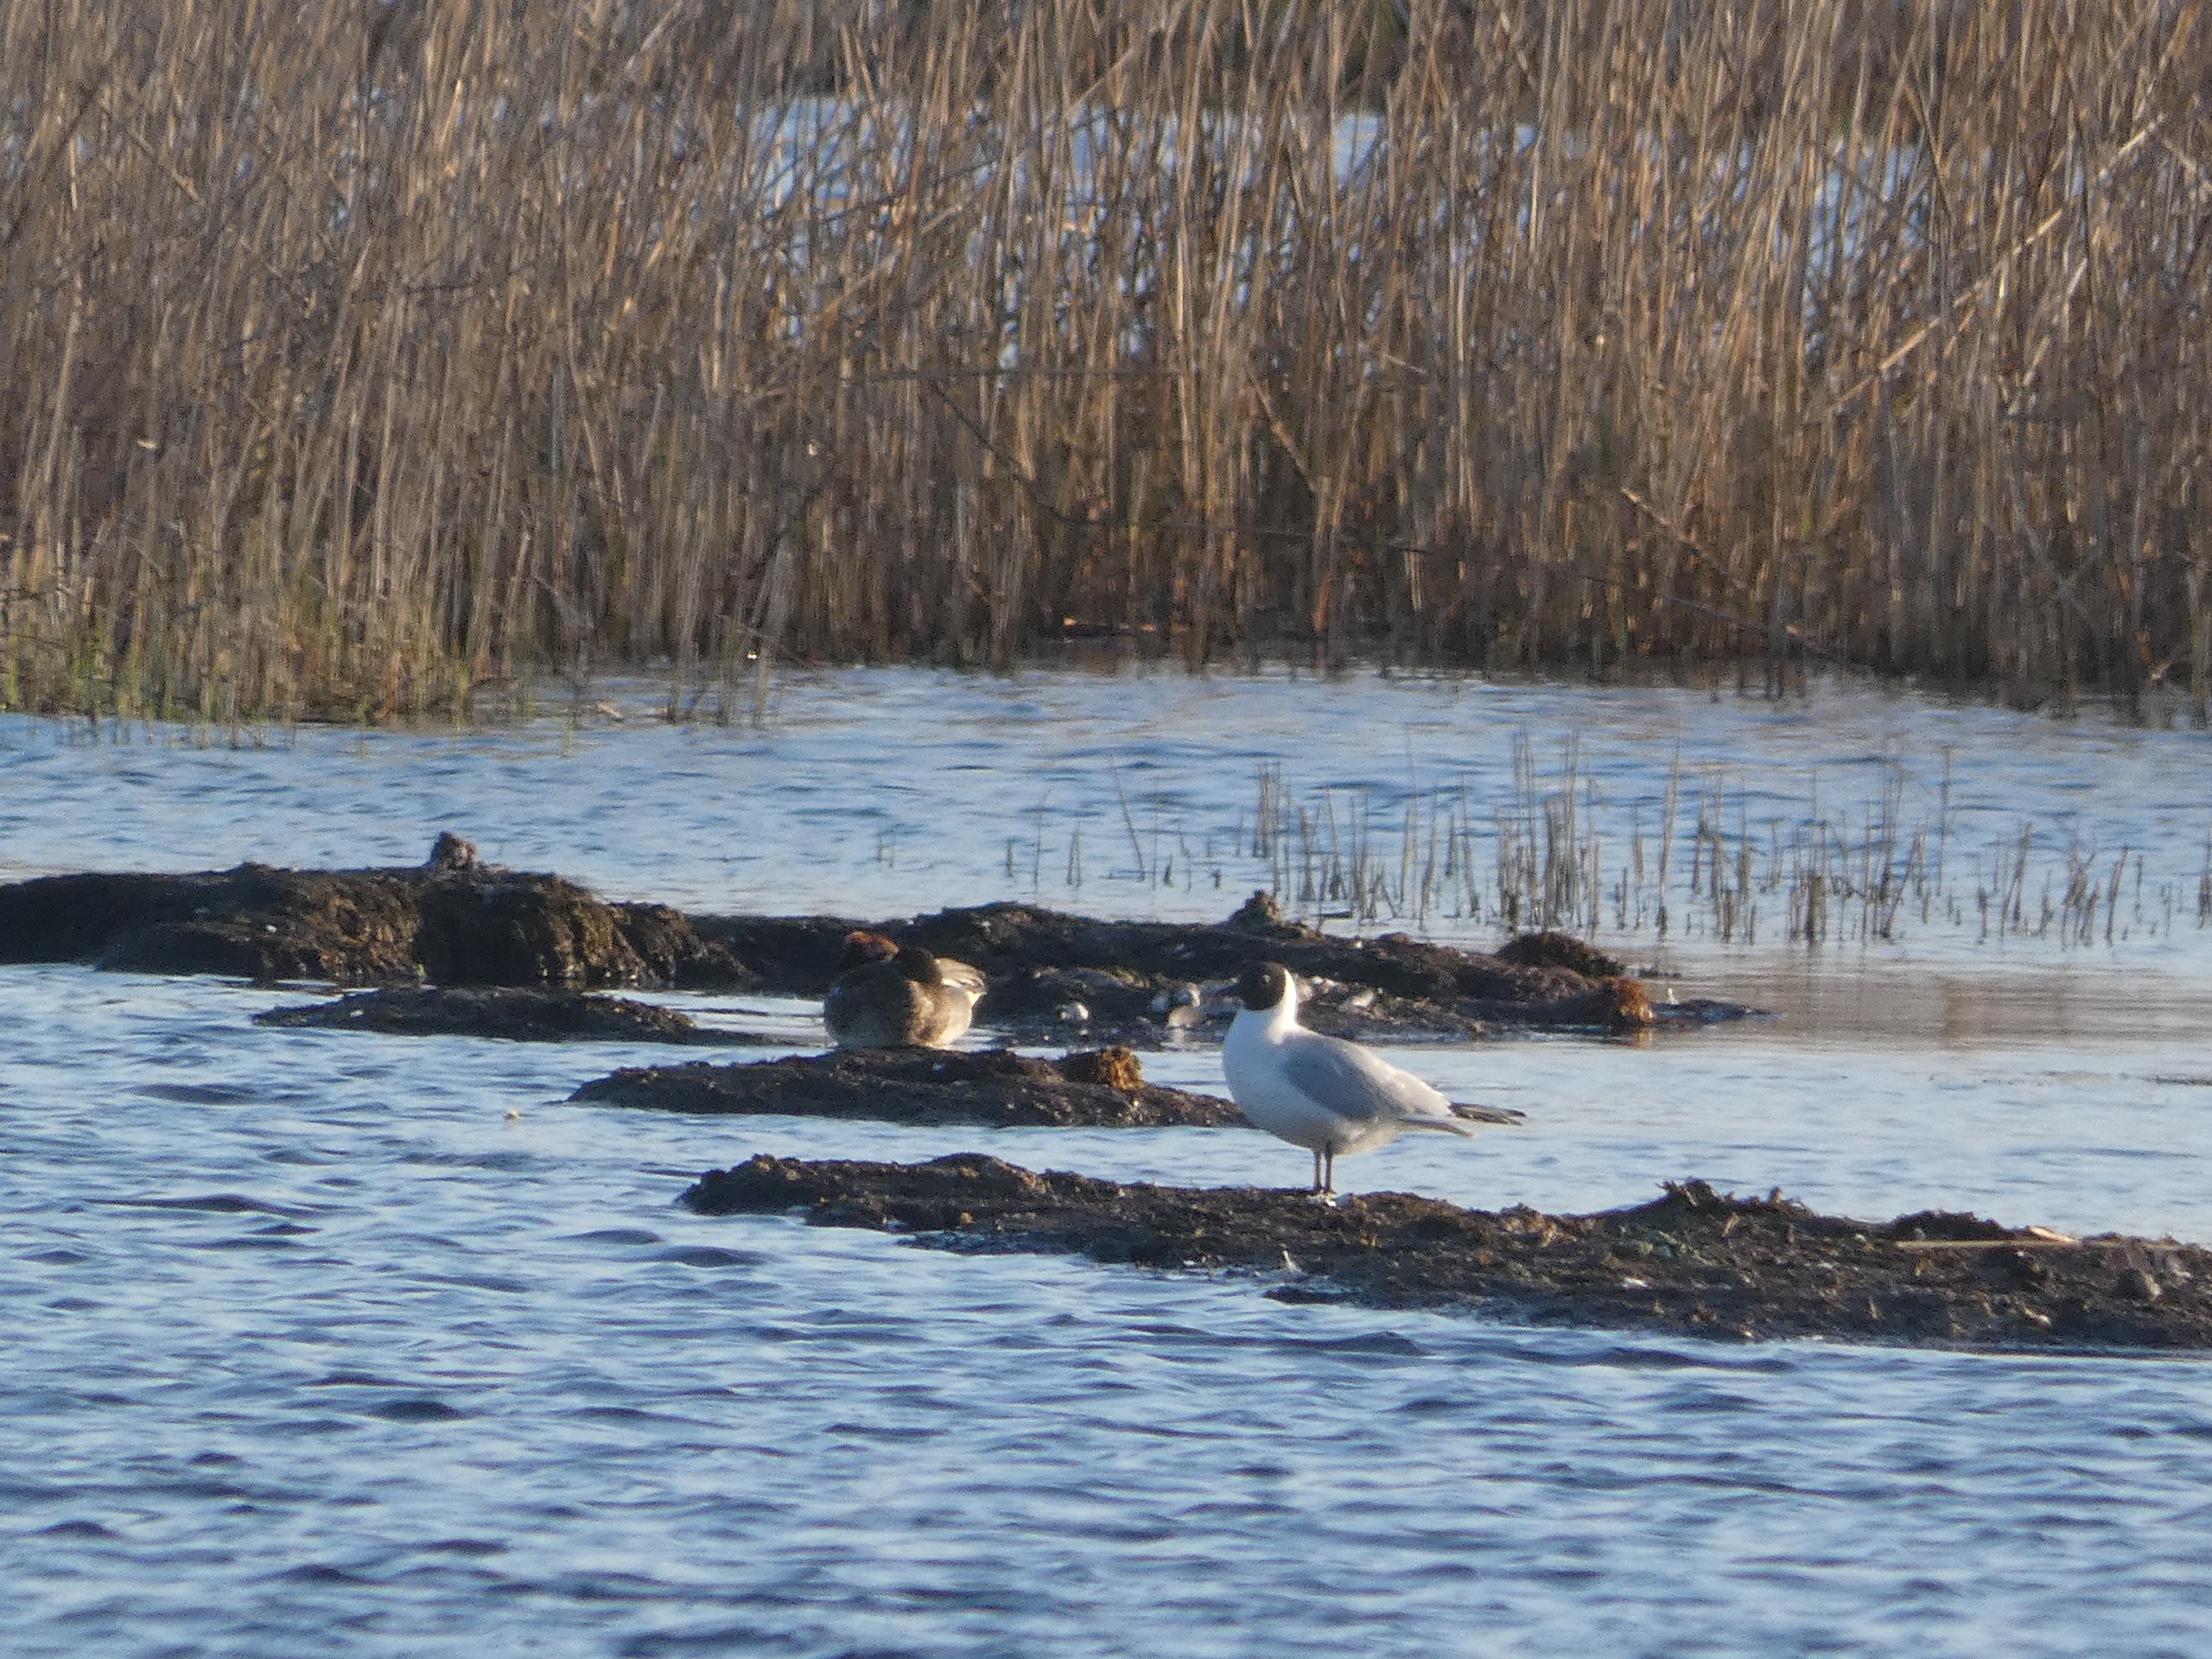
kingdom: Animalia
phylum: Chordata
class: Aves
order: Charadriiformes
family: Laridae
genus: Chroicocephalus
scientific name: Chroicocephalus ridibundus
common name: Hættemåge
